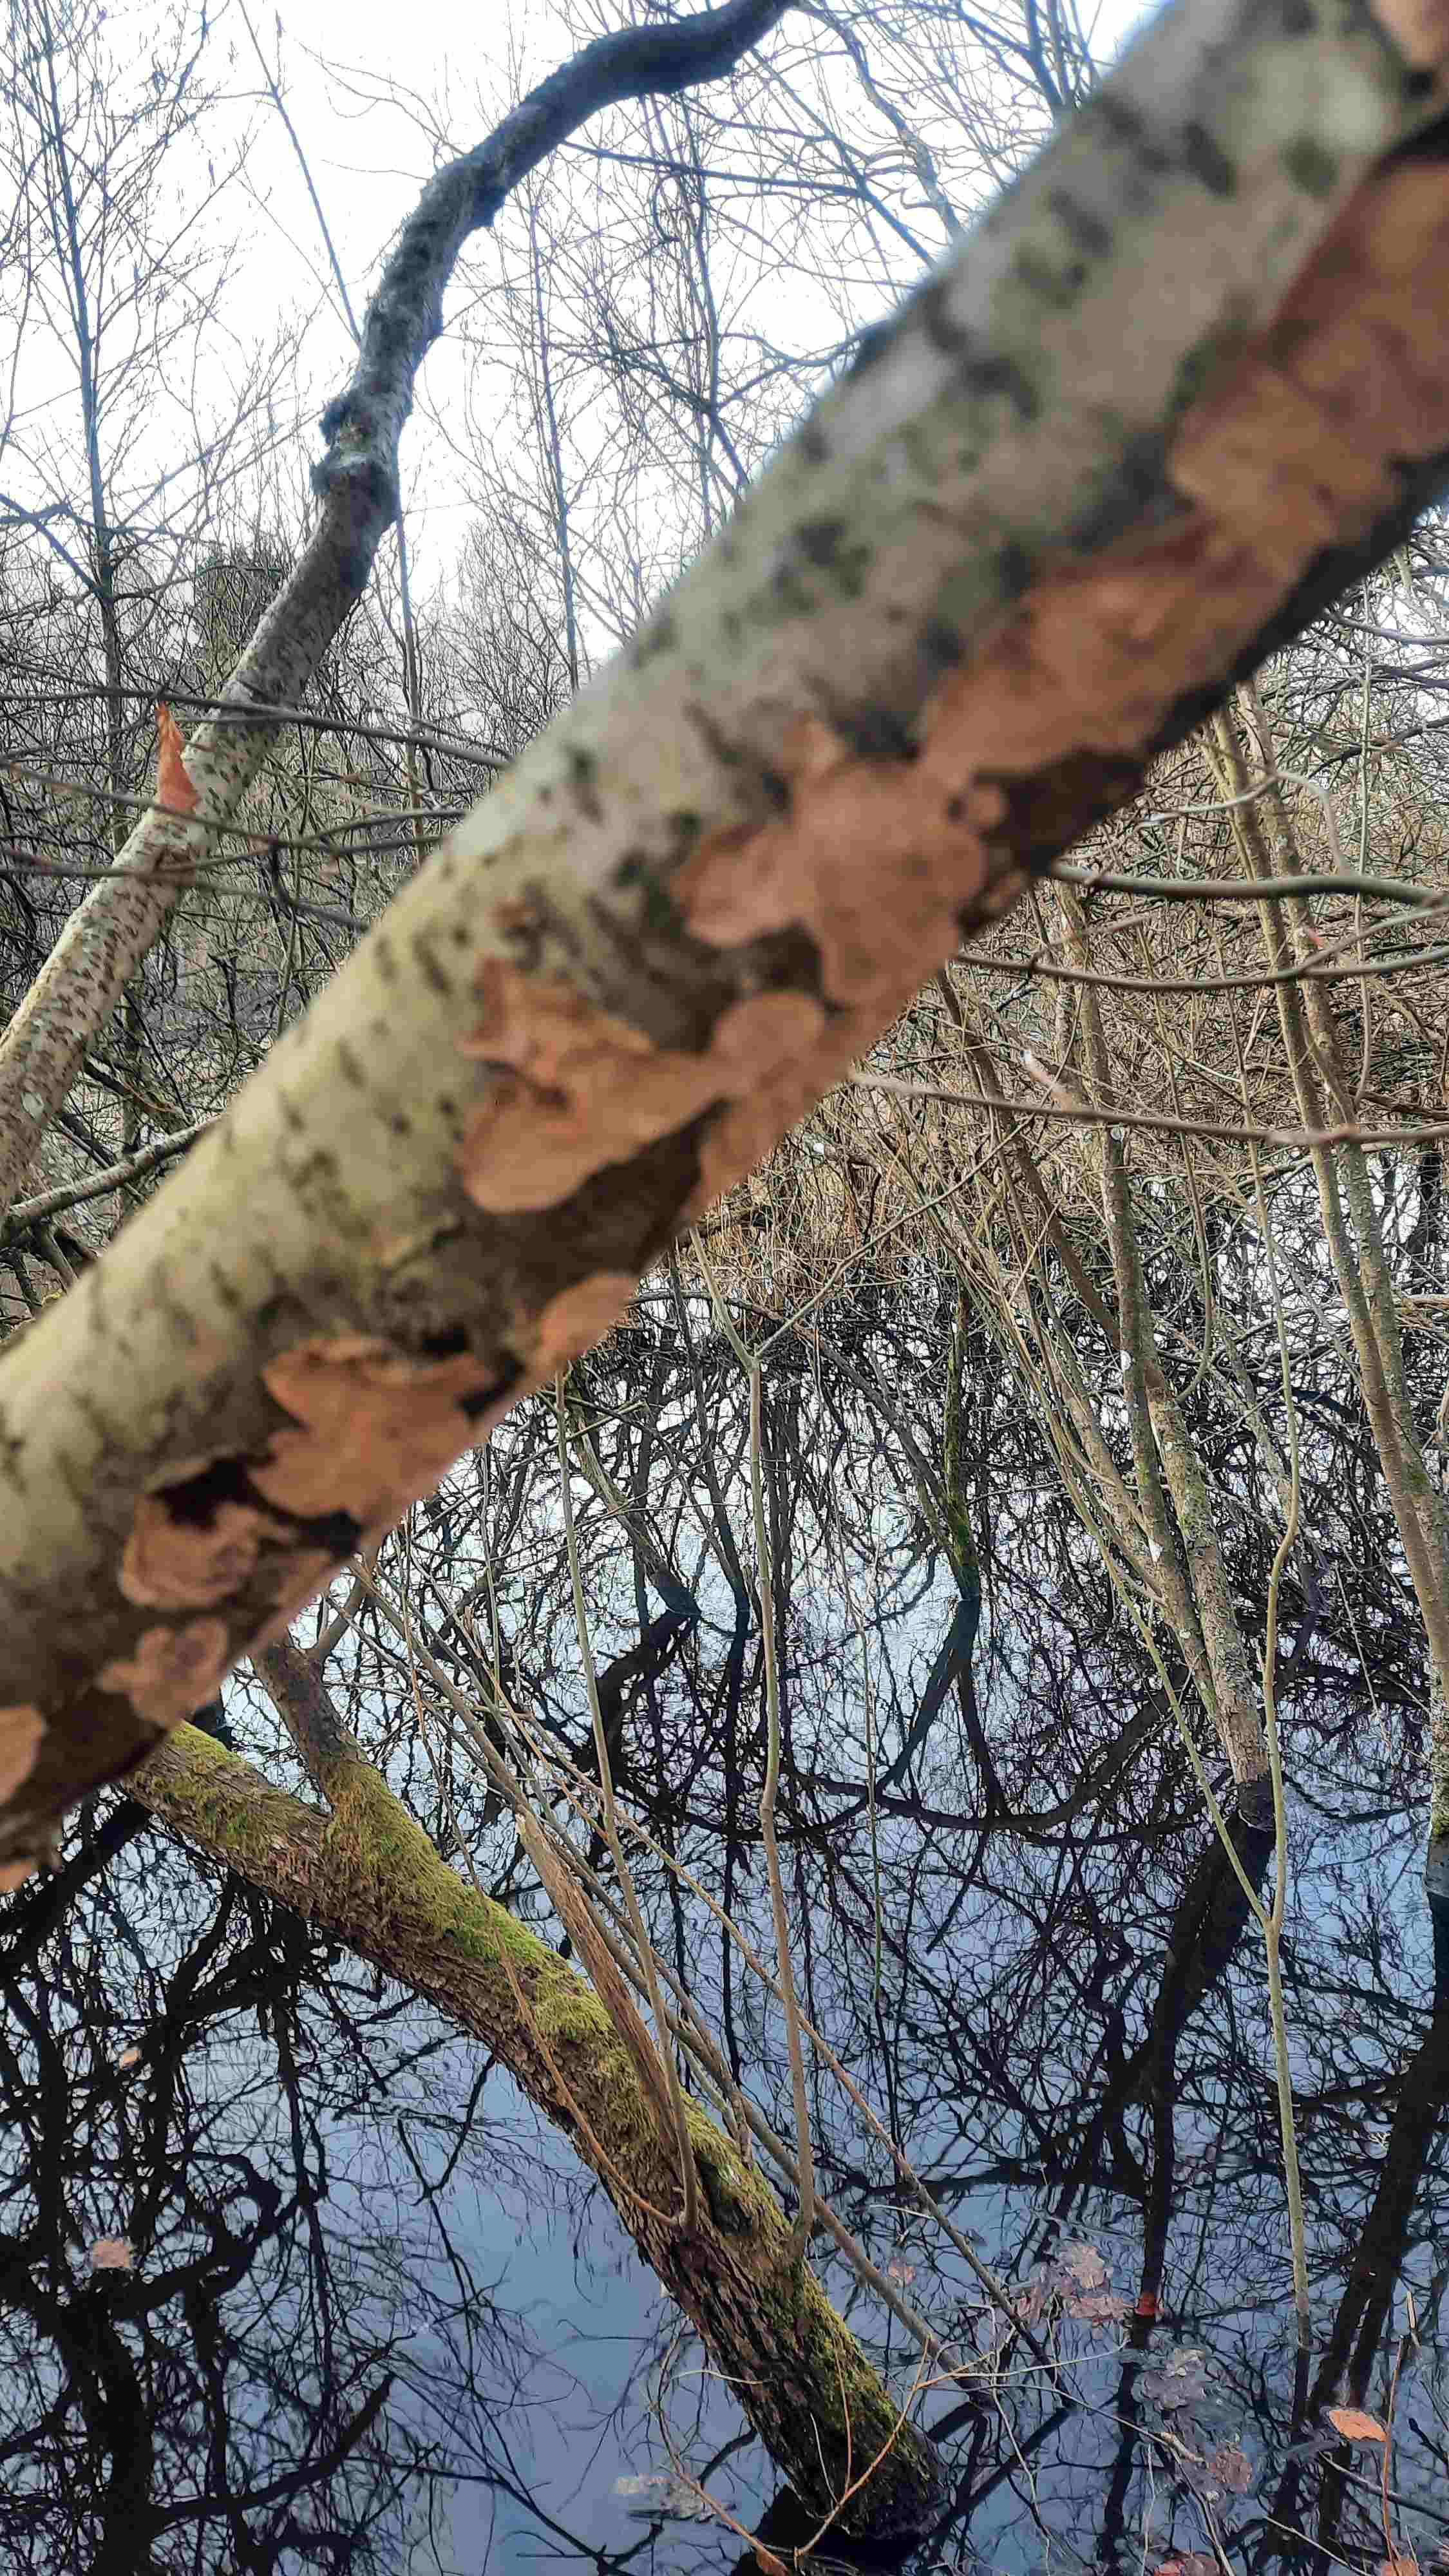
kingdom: Fungi
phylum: Basidiomycota
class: Agaricomycetes
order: Corticiales
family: Corticiaceae
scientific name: Corticiaceae
